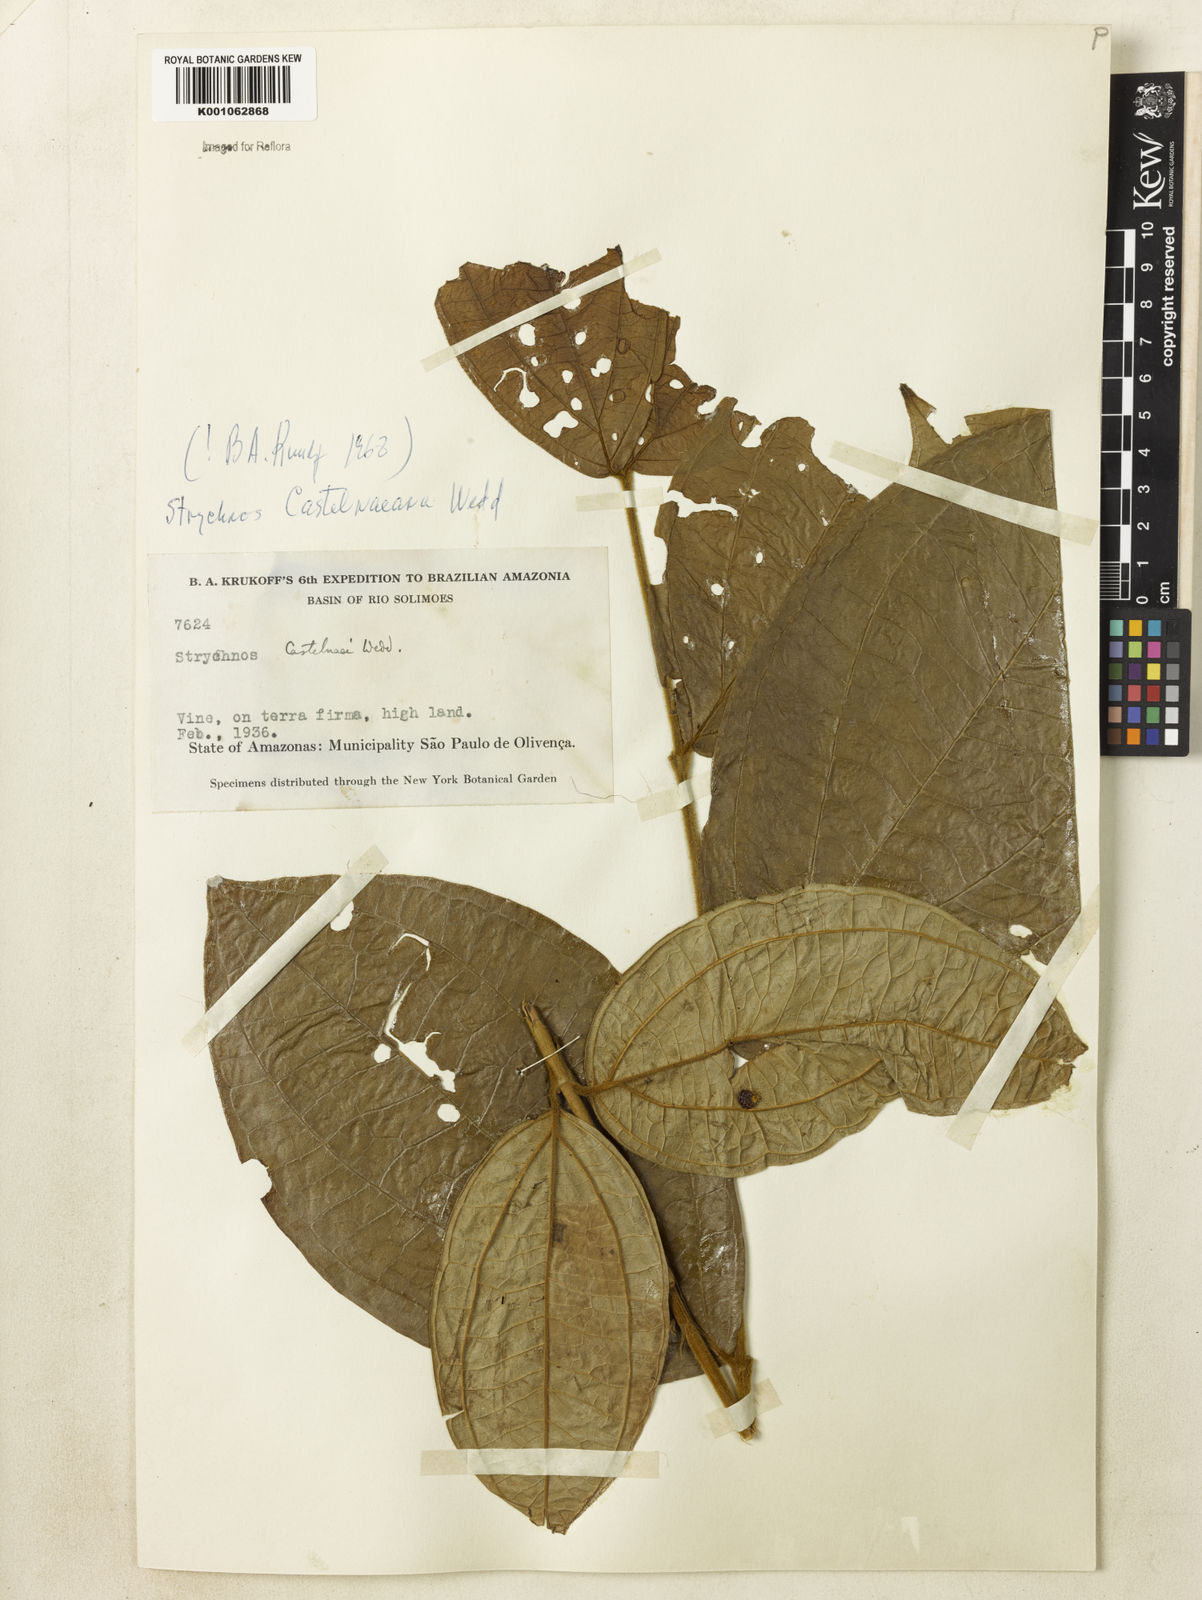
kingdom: Plantae
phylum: Tracheophyta
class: Magnoliopsida
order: Gentianales
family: Loganiaceae
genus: Strychnos
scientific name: Strychnos
